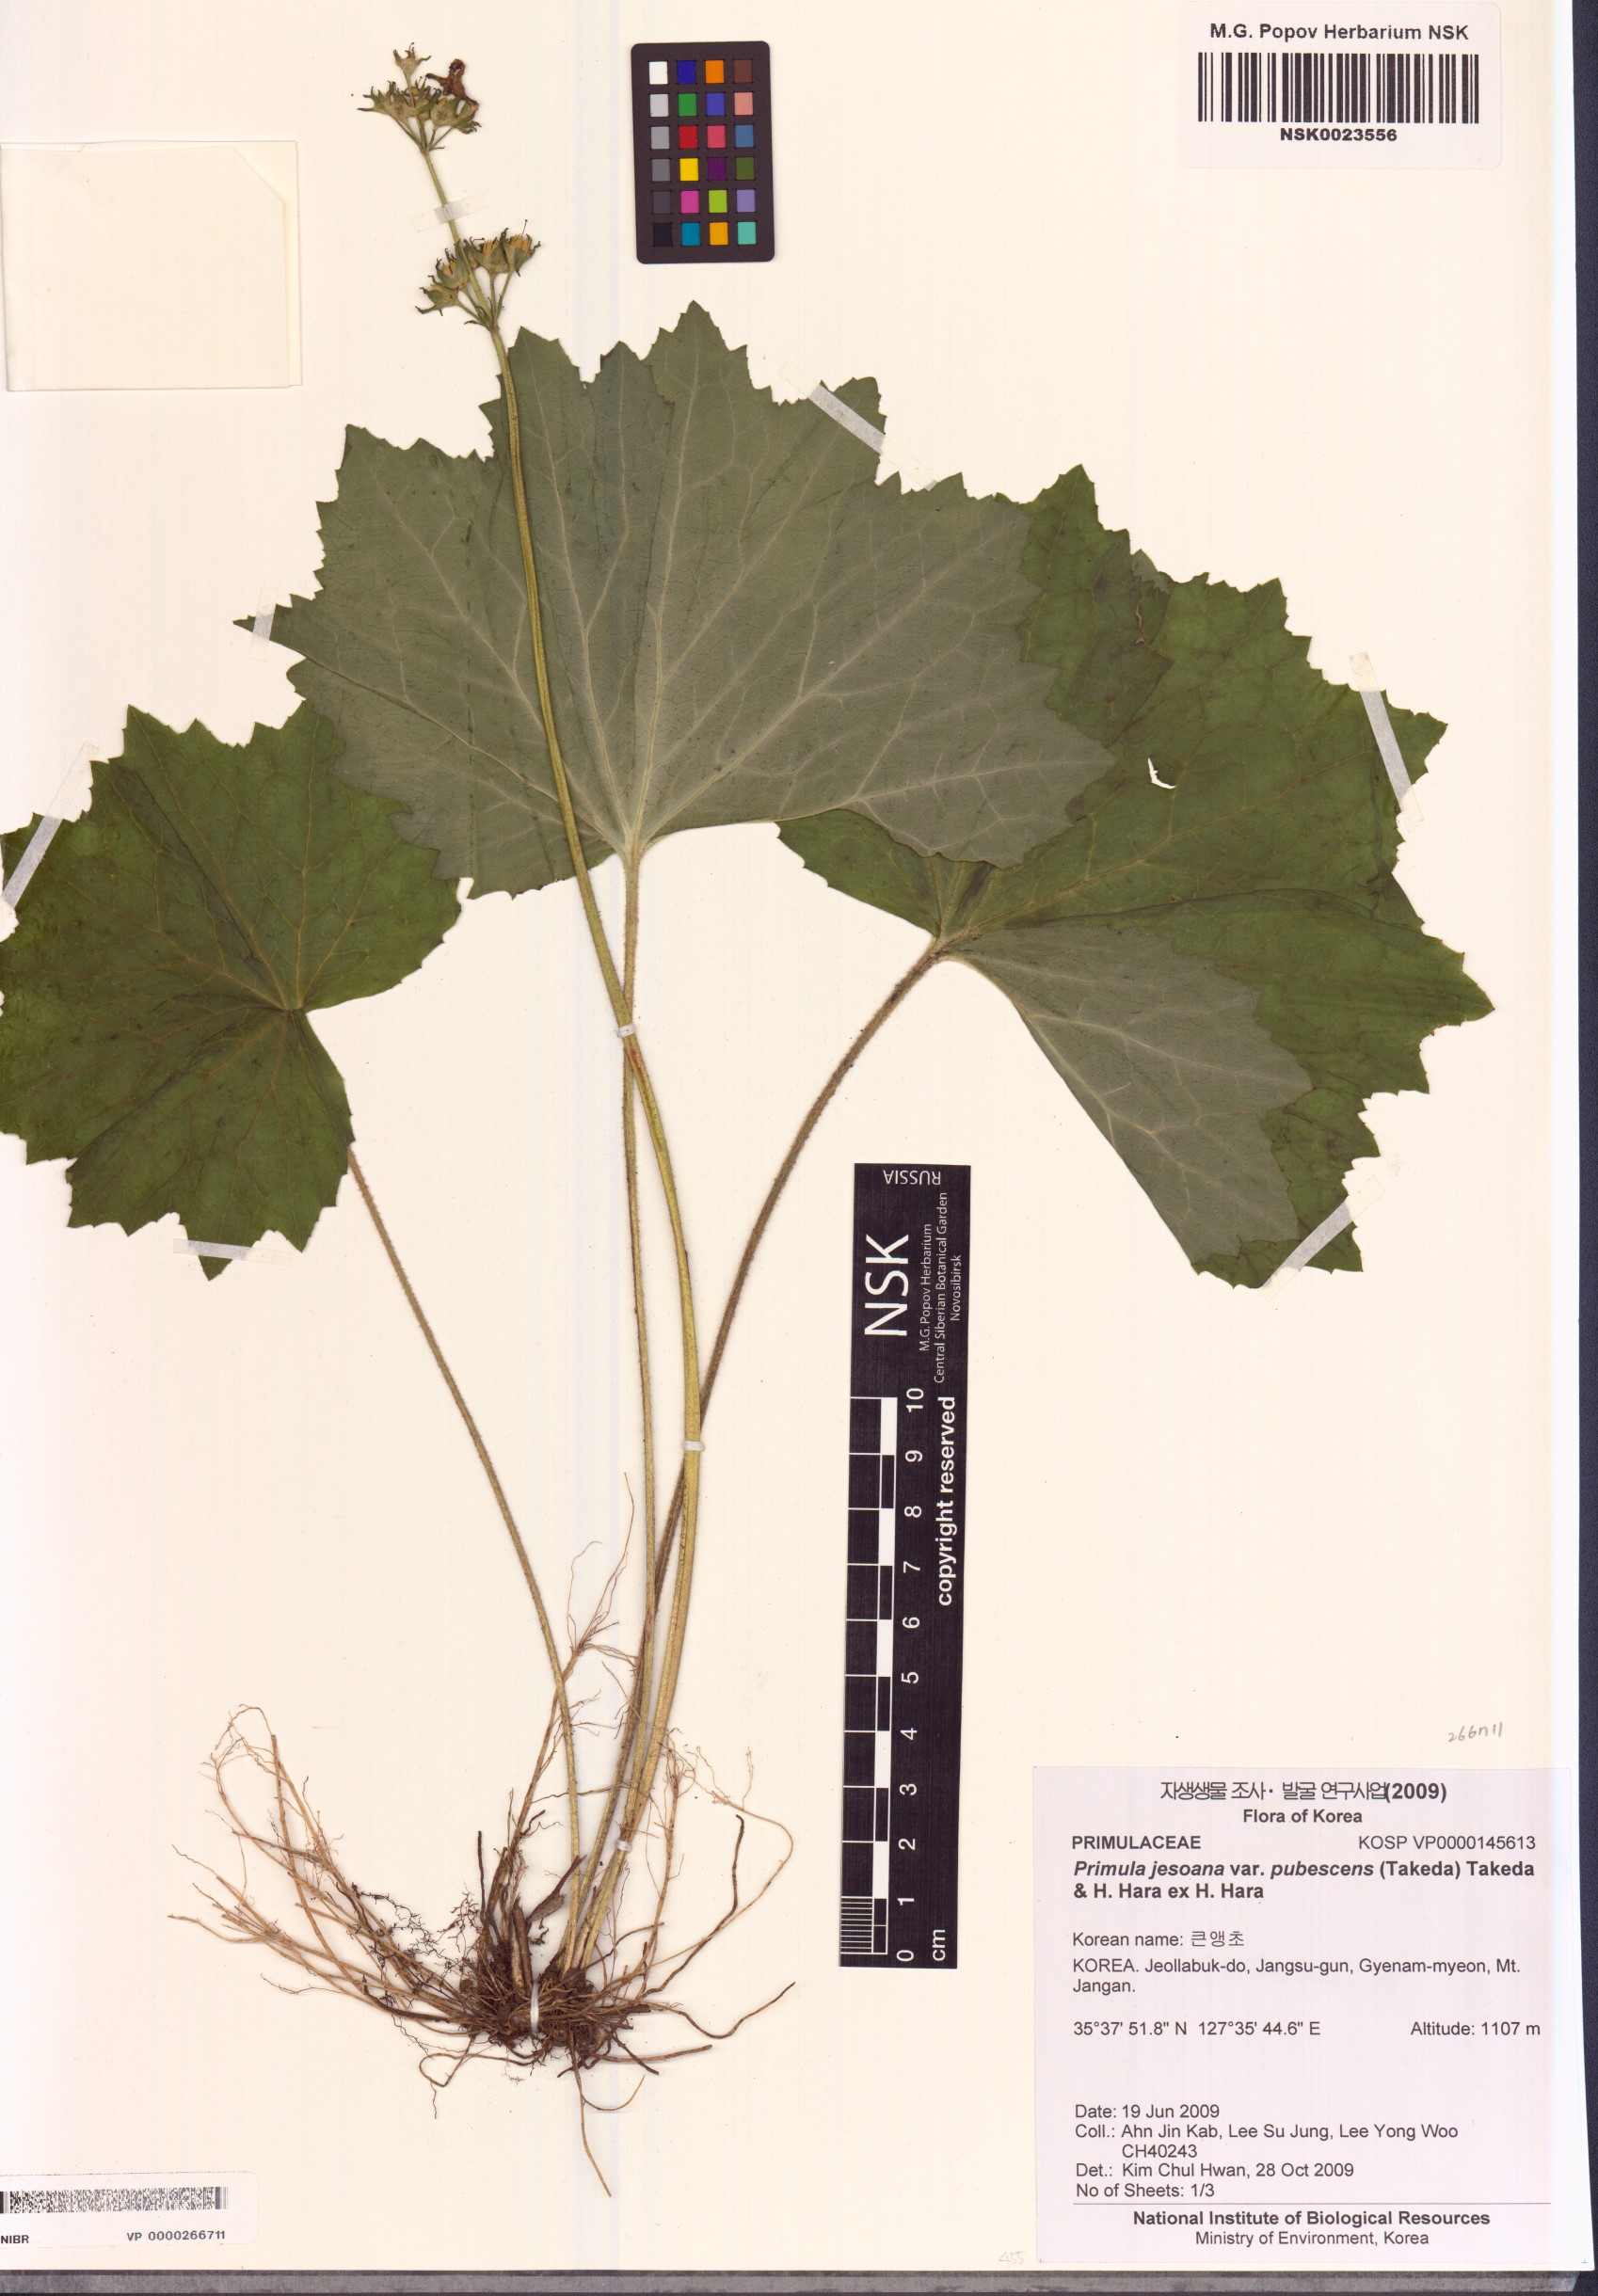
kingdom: Plantae
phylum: Tracheophyta
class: Magnoliopsida
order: Ericales
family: Primulaceae
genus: Primula
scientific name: Primula jesoana
